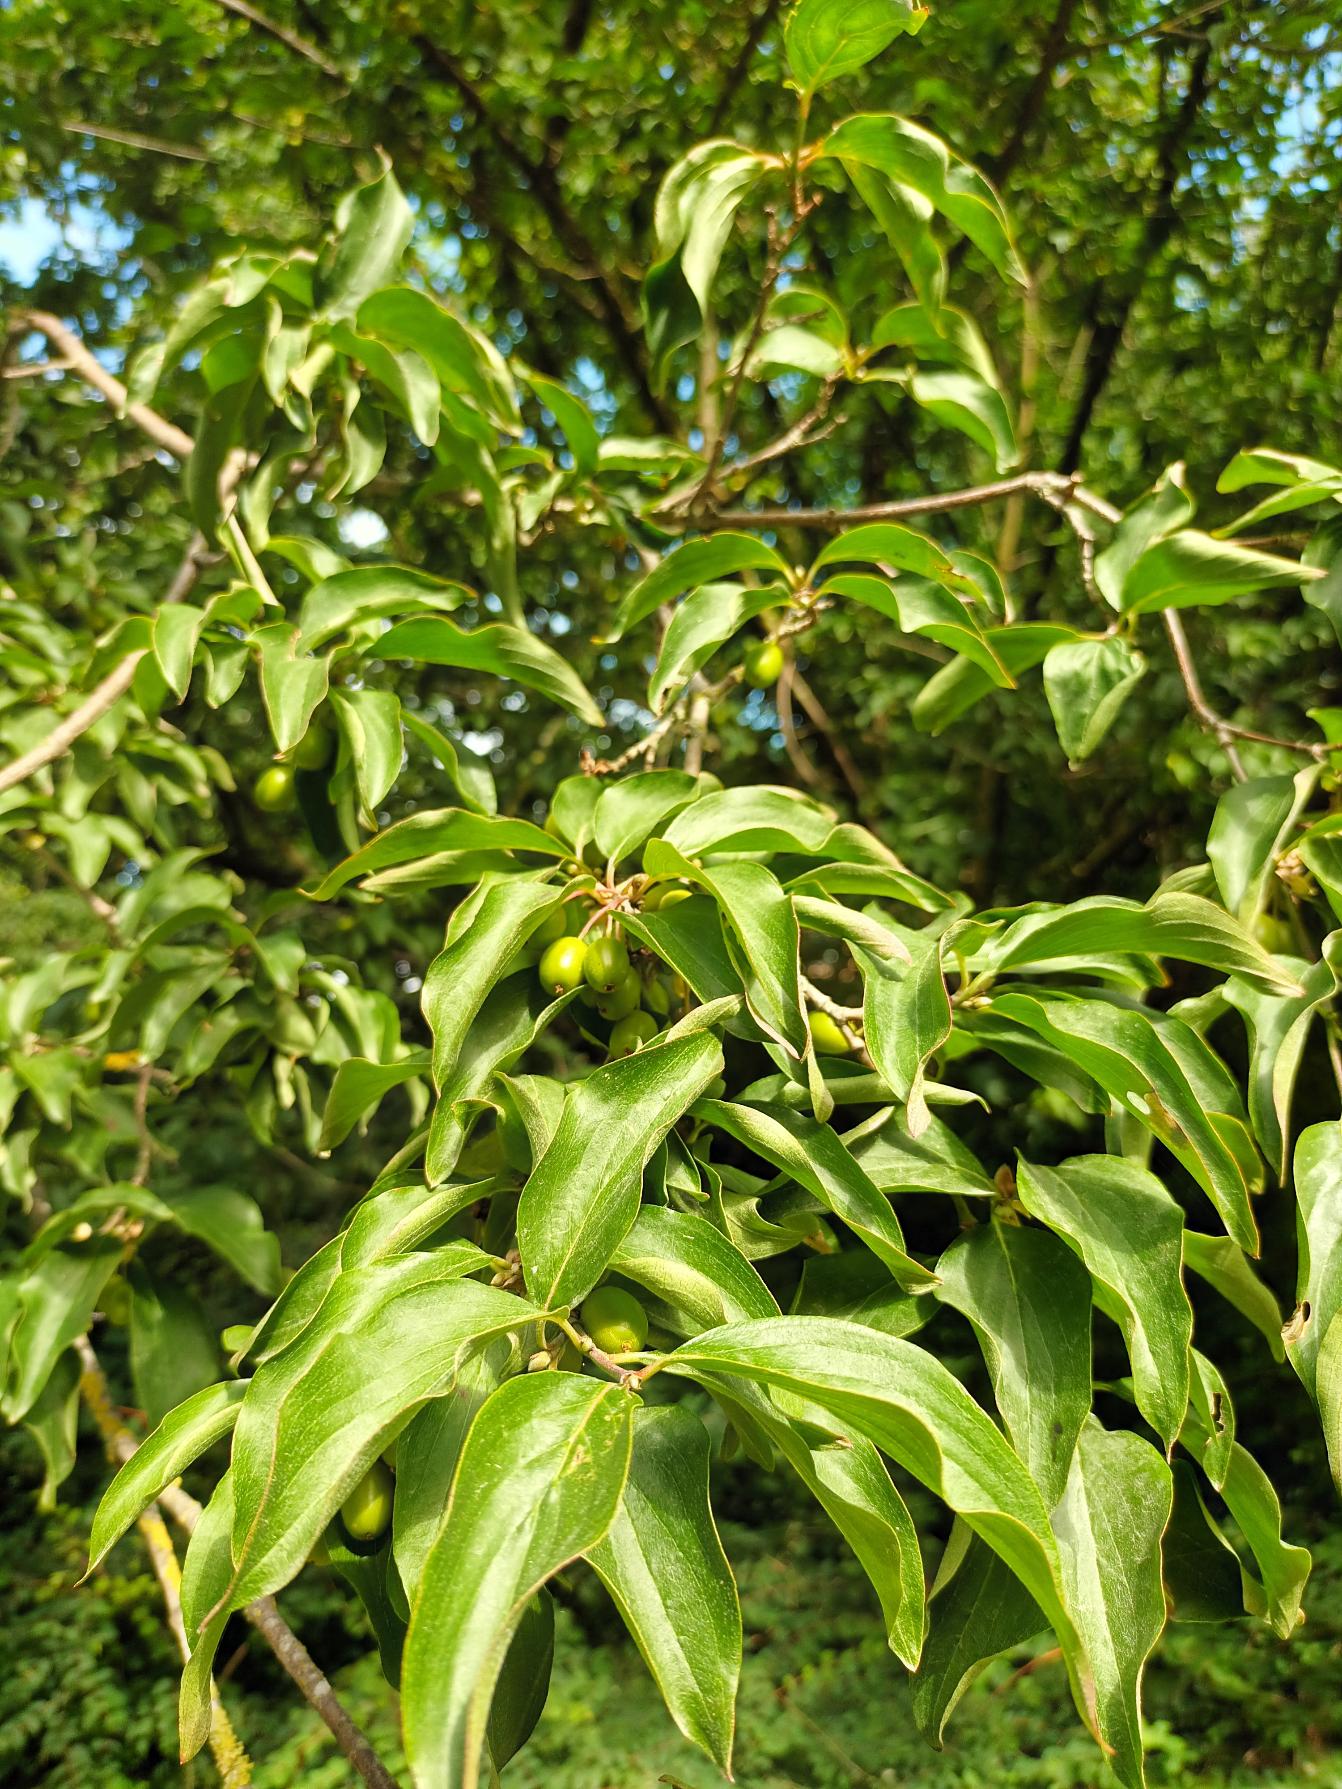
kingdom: Plantae
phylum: Tracheophyta
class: Magnoliopsida
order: Cornales
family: Cornaceae
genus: Cornus
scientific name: Cornus mas
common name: Kirsebær-kornel
